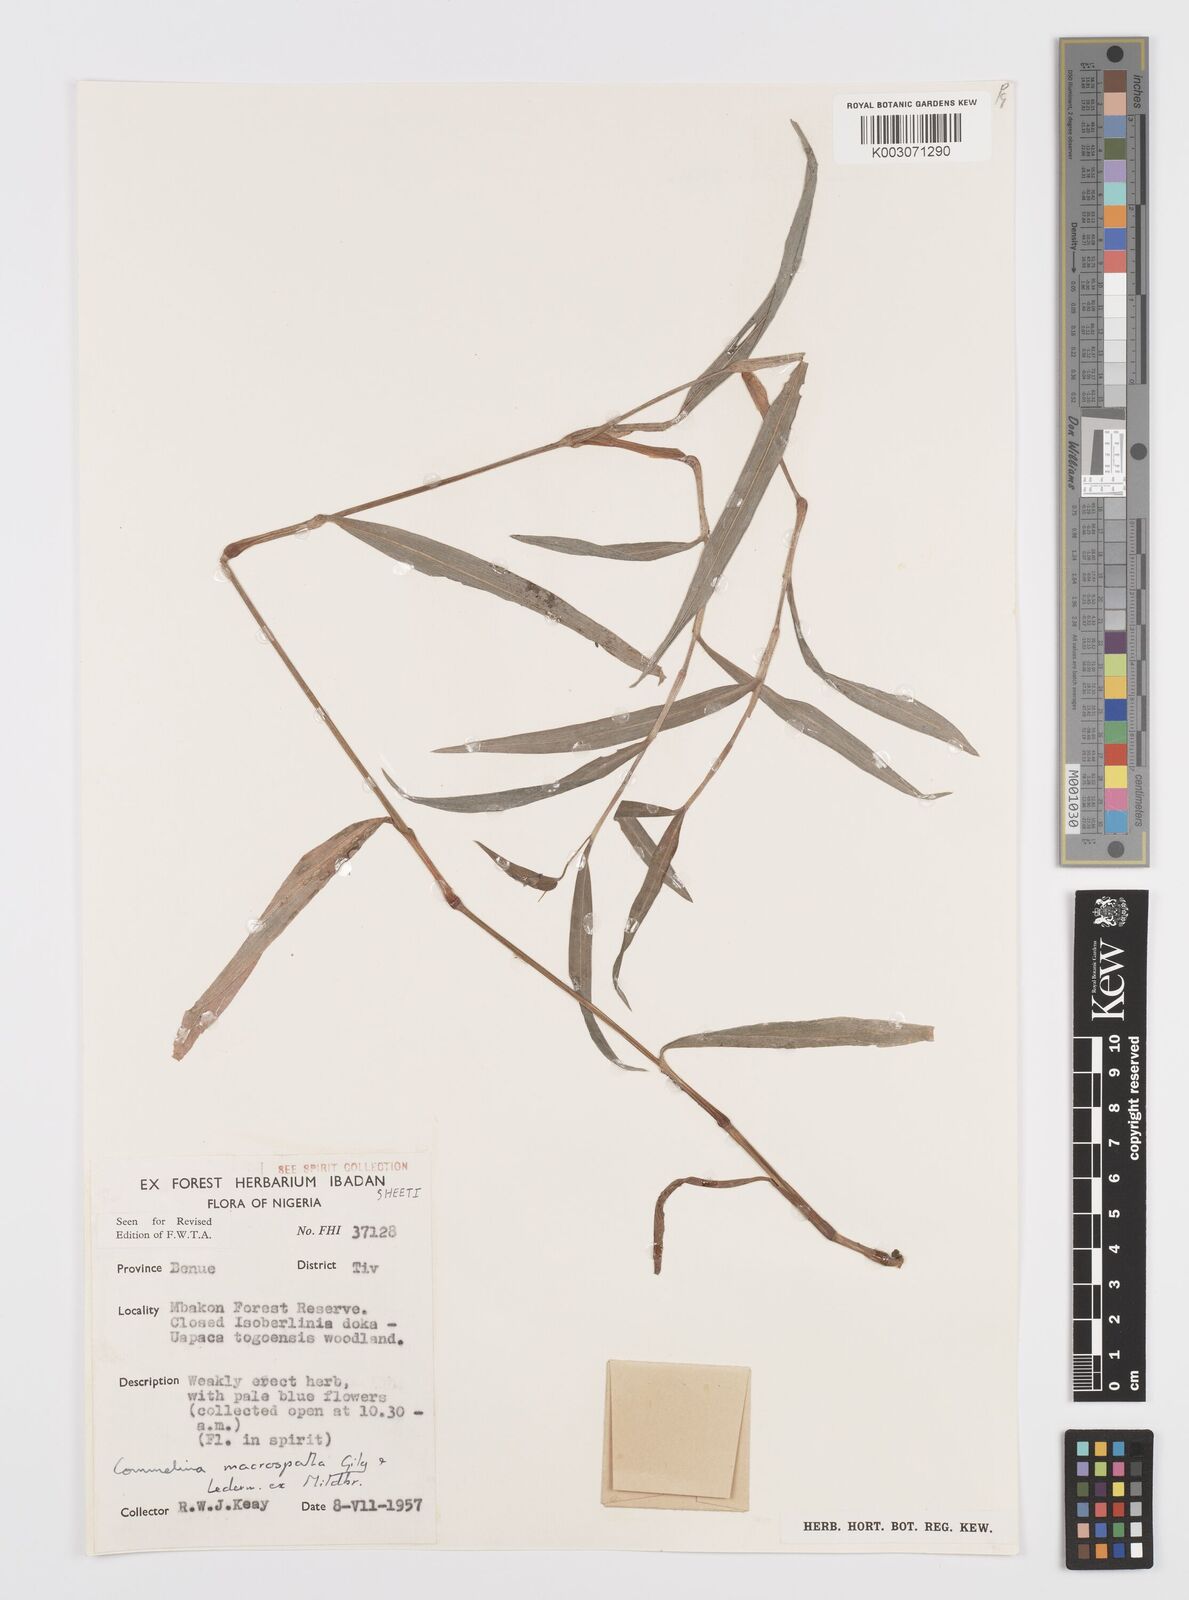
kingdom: Plantae
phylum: Tracheophyta
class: Liliopsida
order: Commelinales
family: Commelinaceae
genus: Commelina
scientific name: Commelina macrospatha
